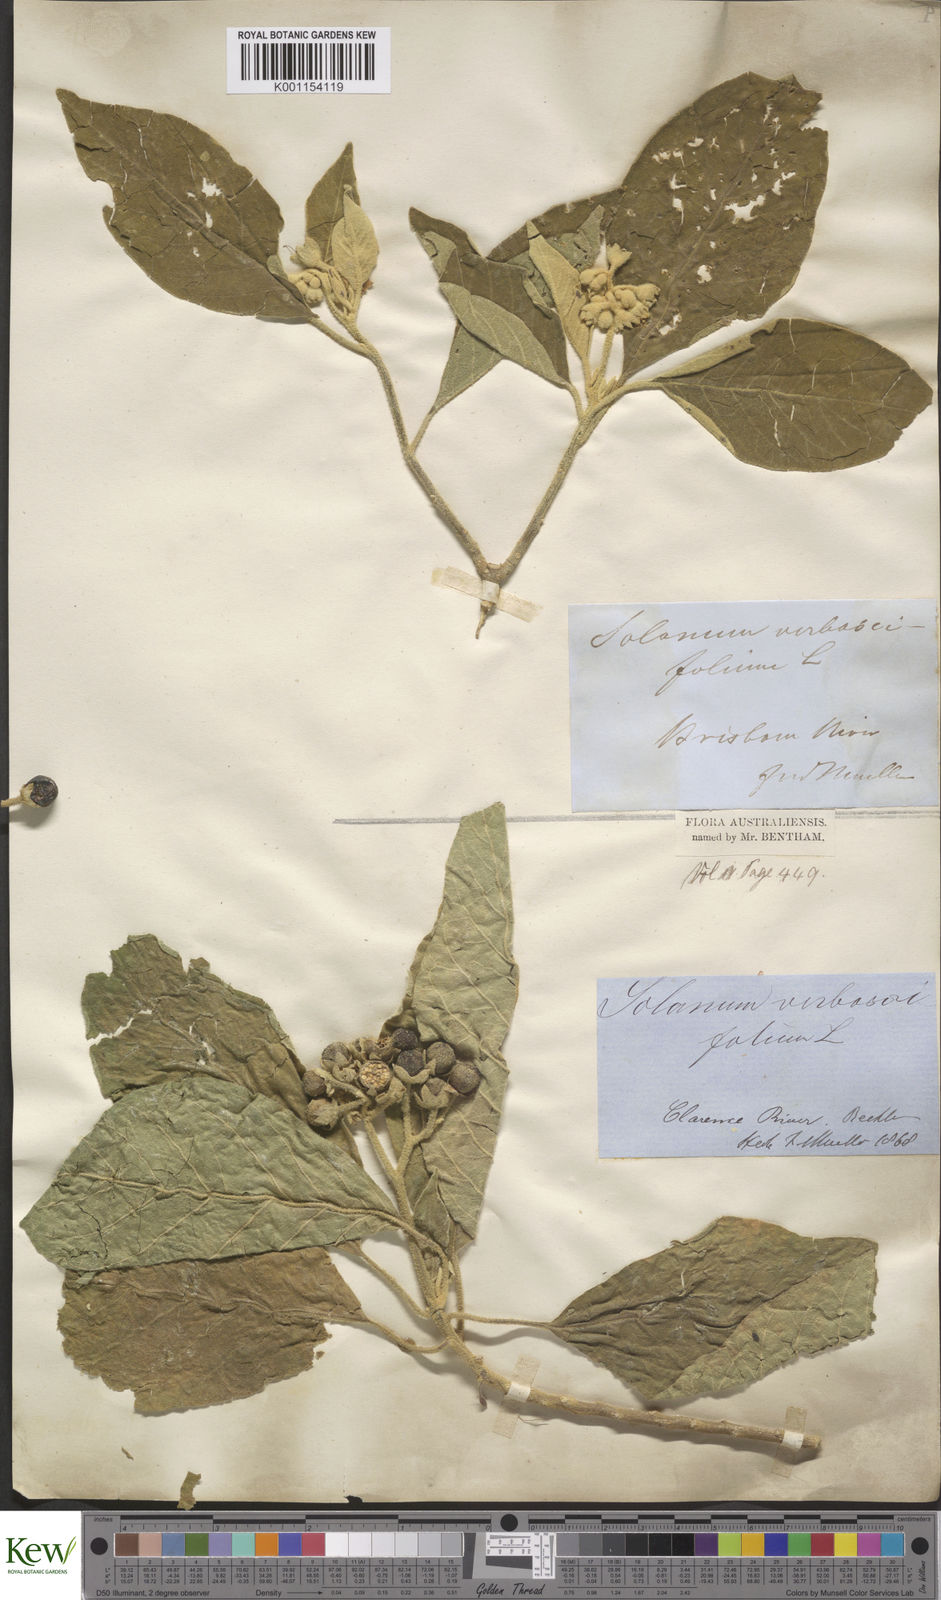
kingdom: Plantae
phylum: Tracheophyta
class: Magnoliopsida
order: Solanales
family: Solanaceae
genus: Solanum
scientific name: Solanum erianthum
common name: Tobacco-tree
